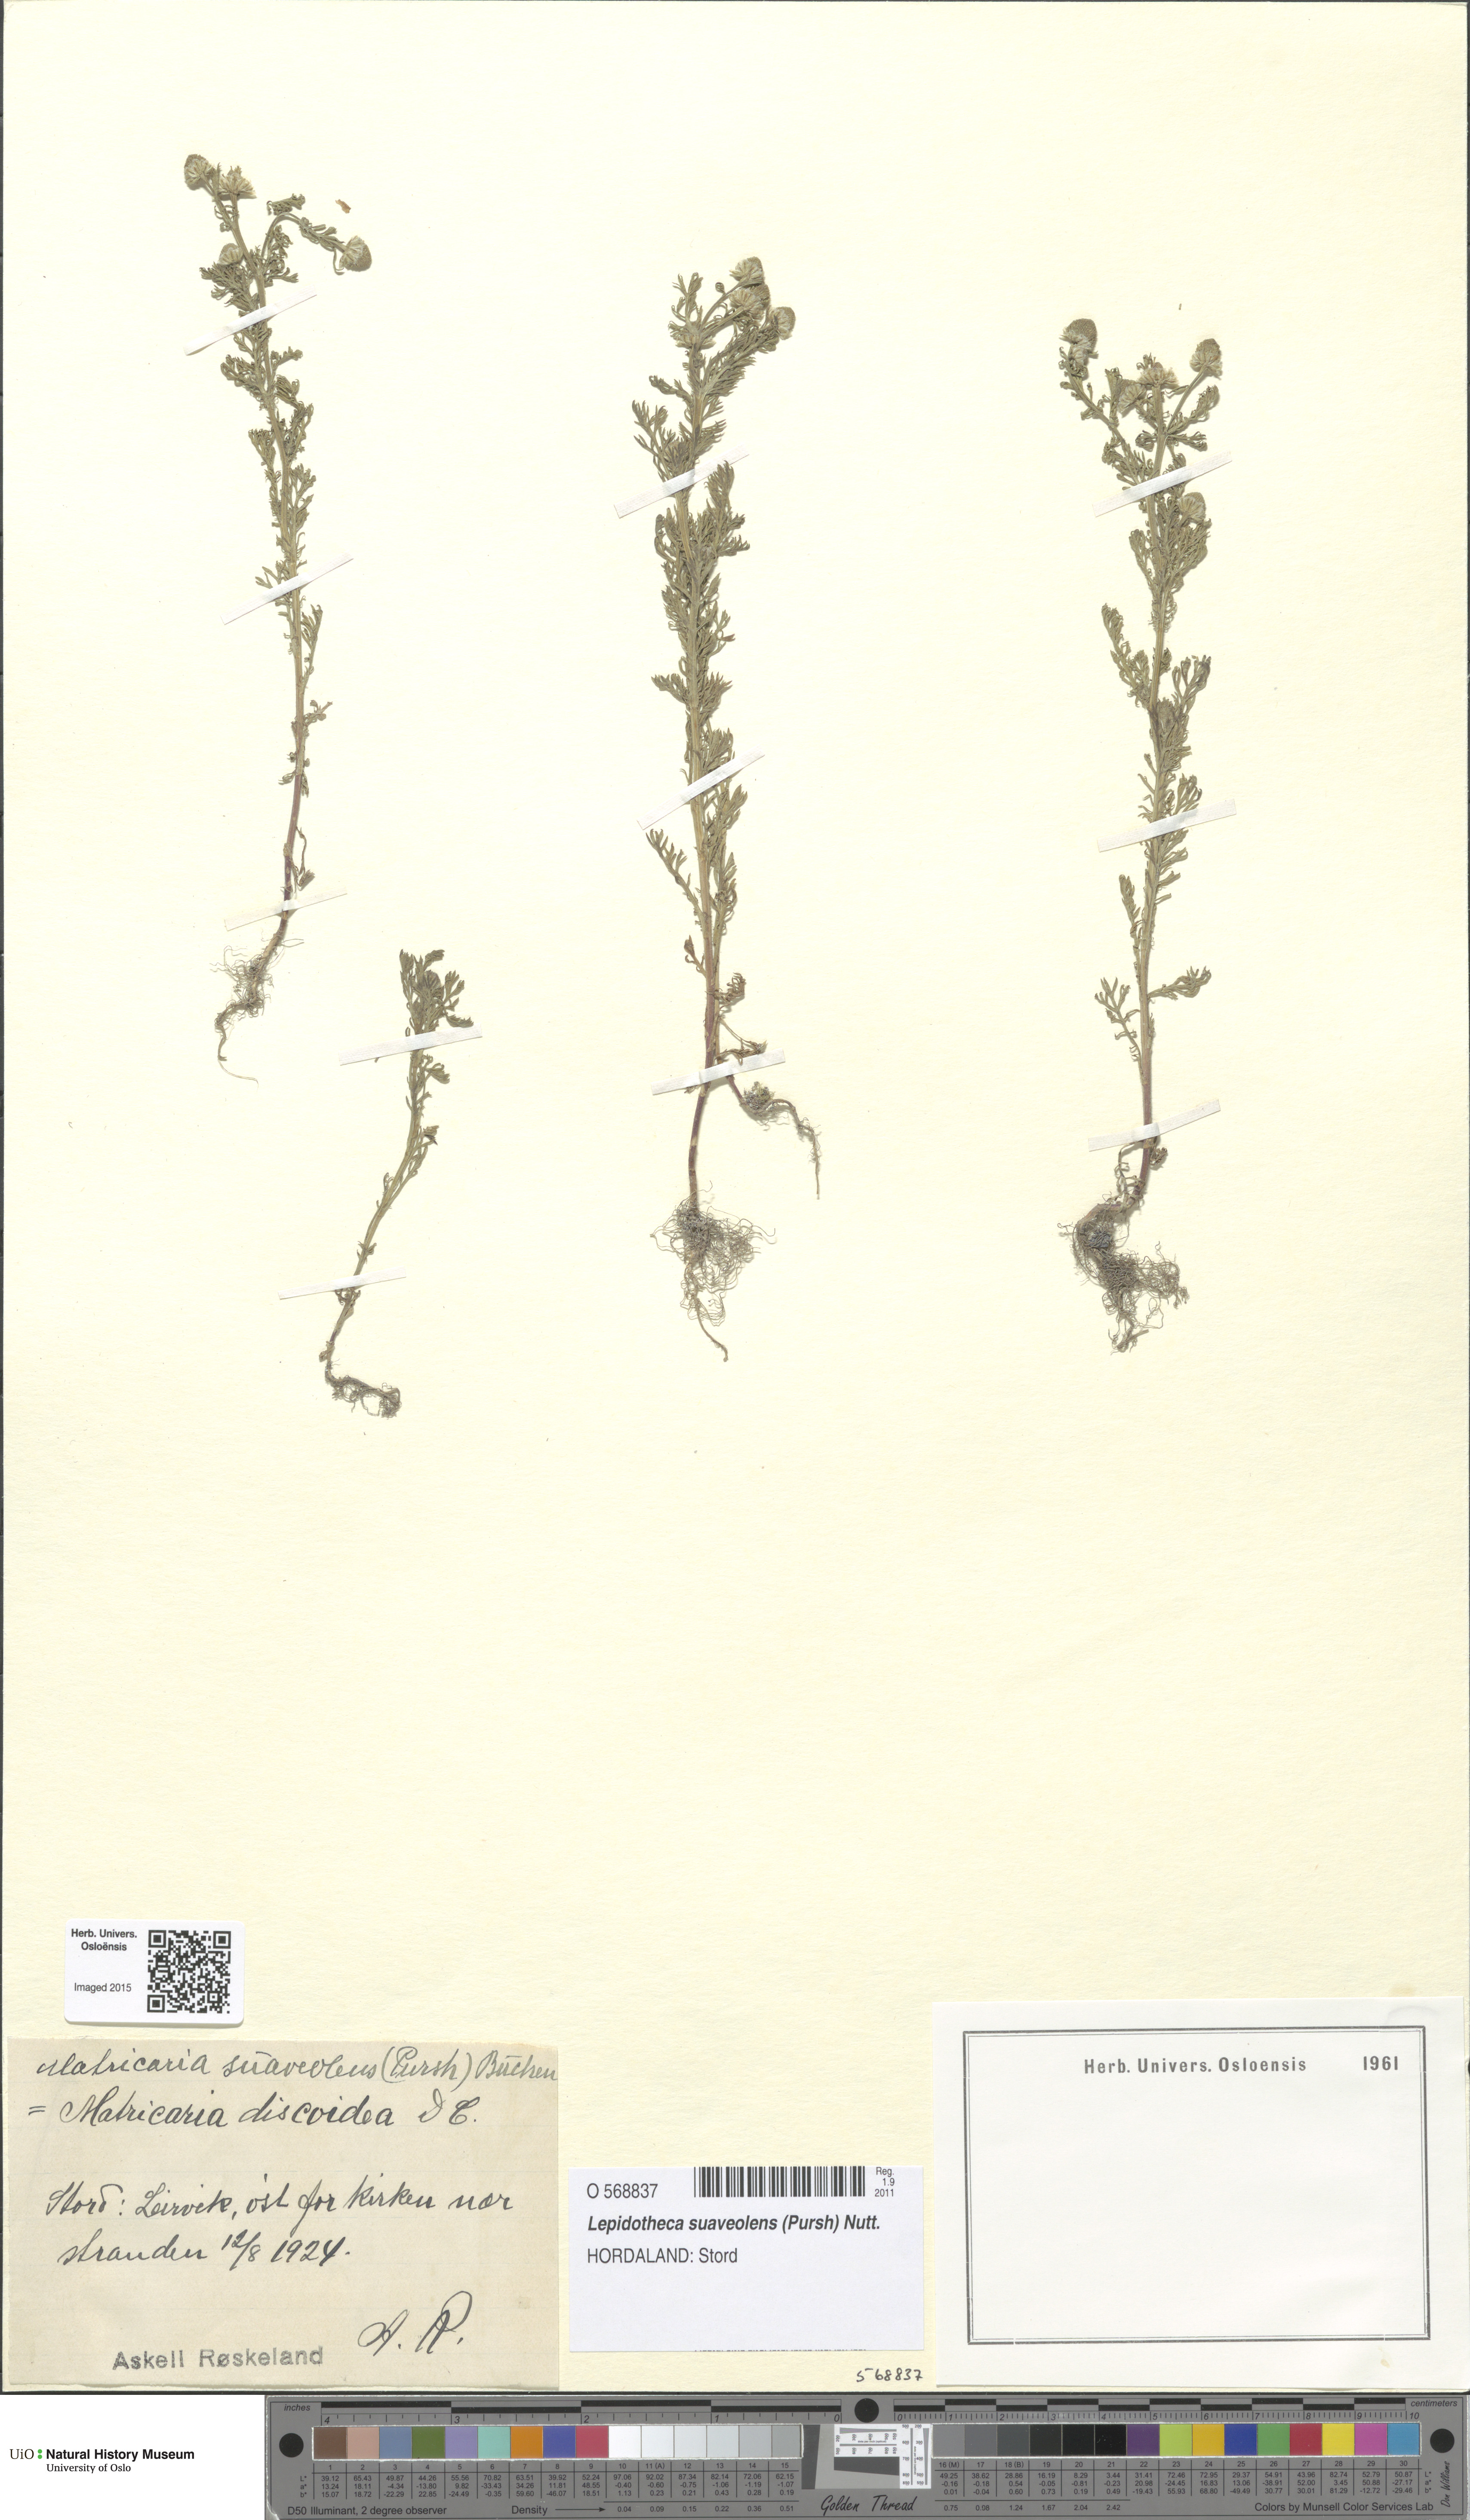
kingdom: Plantae
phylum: Tracheophyta
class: Magnoliopsida
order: Asterales
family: Asteraceae
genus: Matricaria
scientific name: Matricaria discoidea
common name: Disc mayweed
